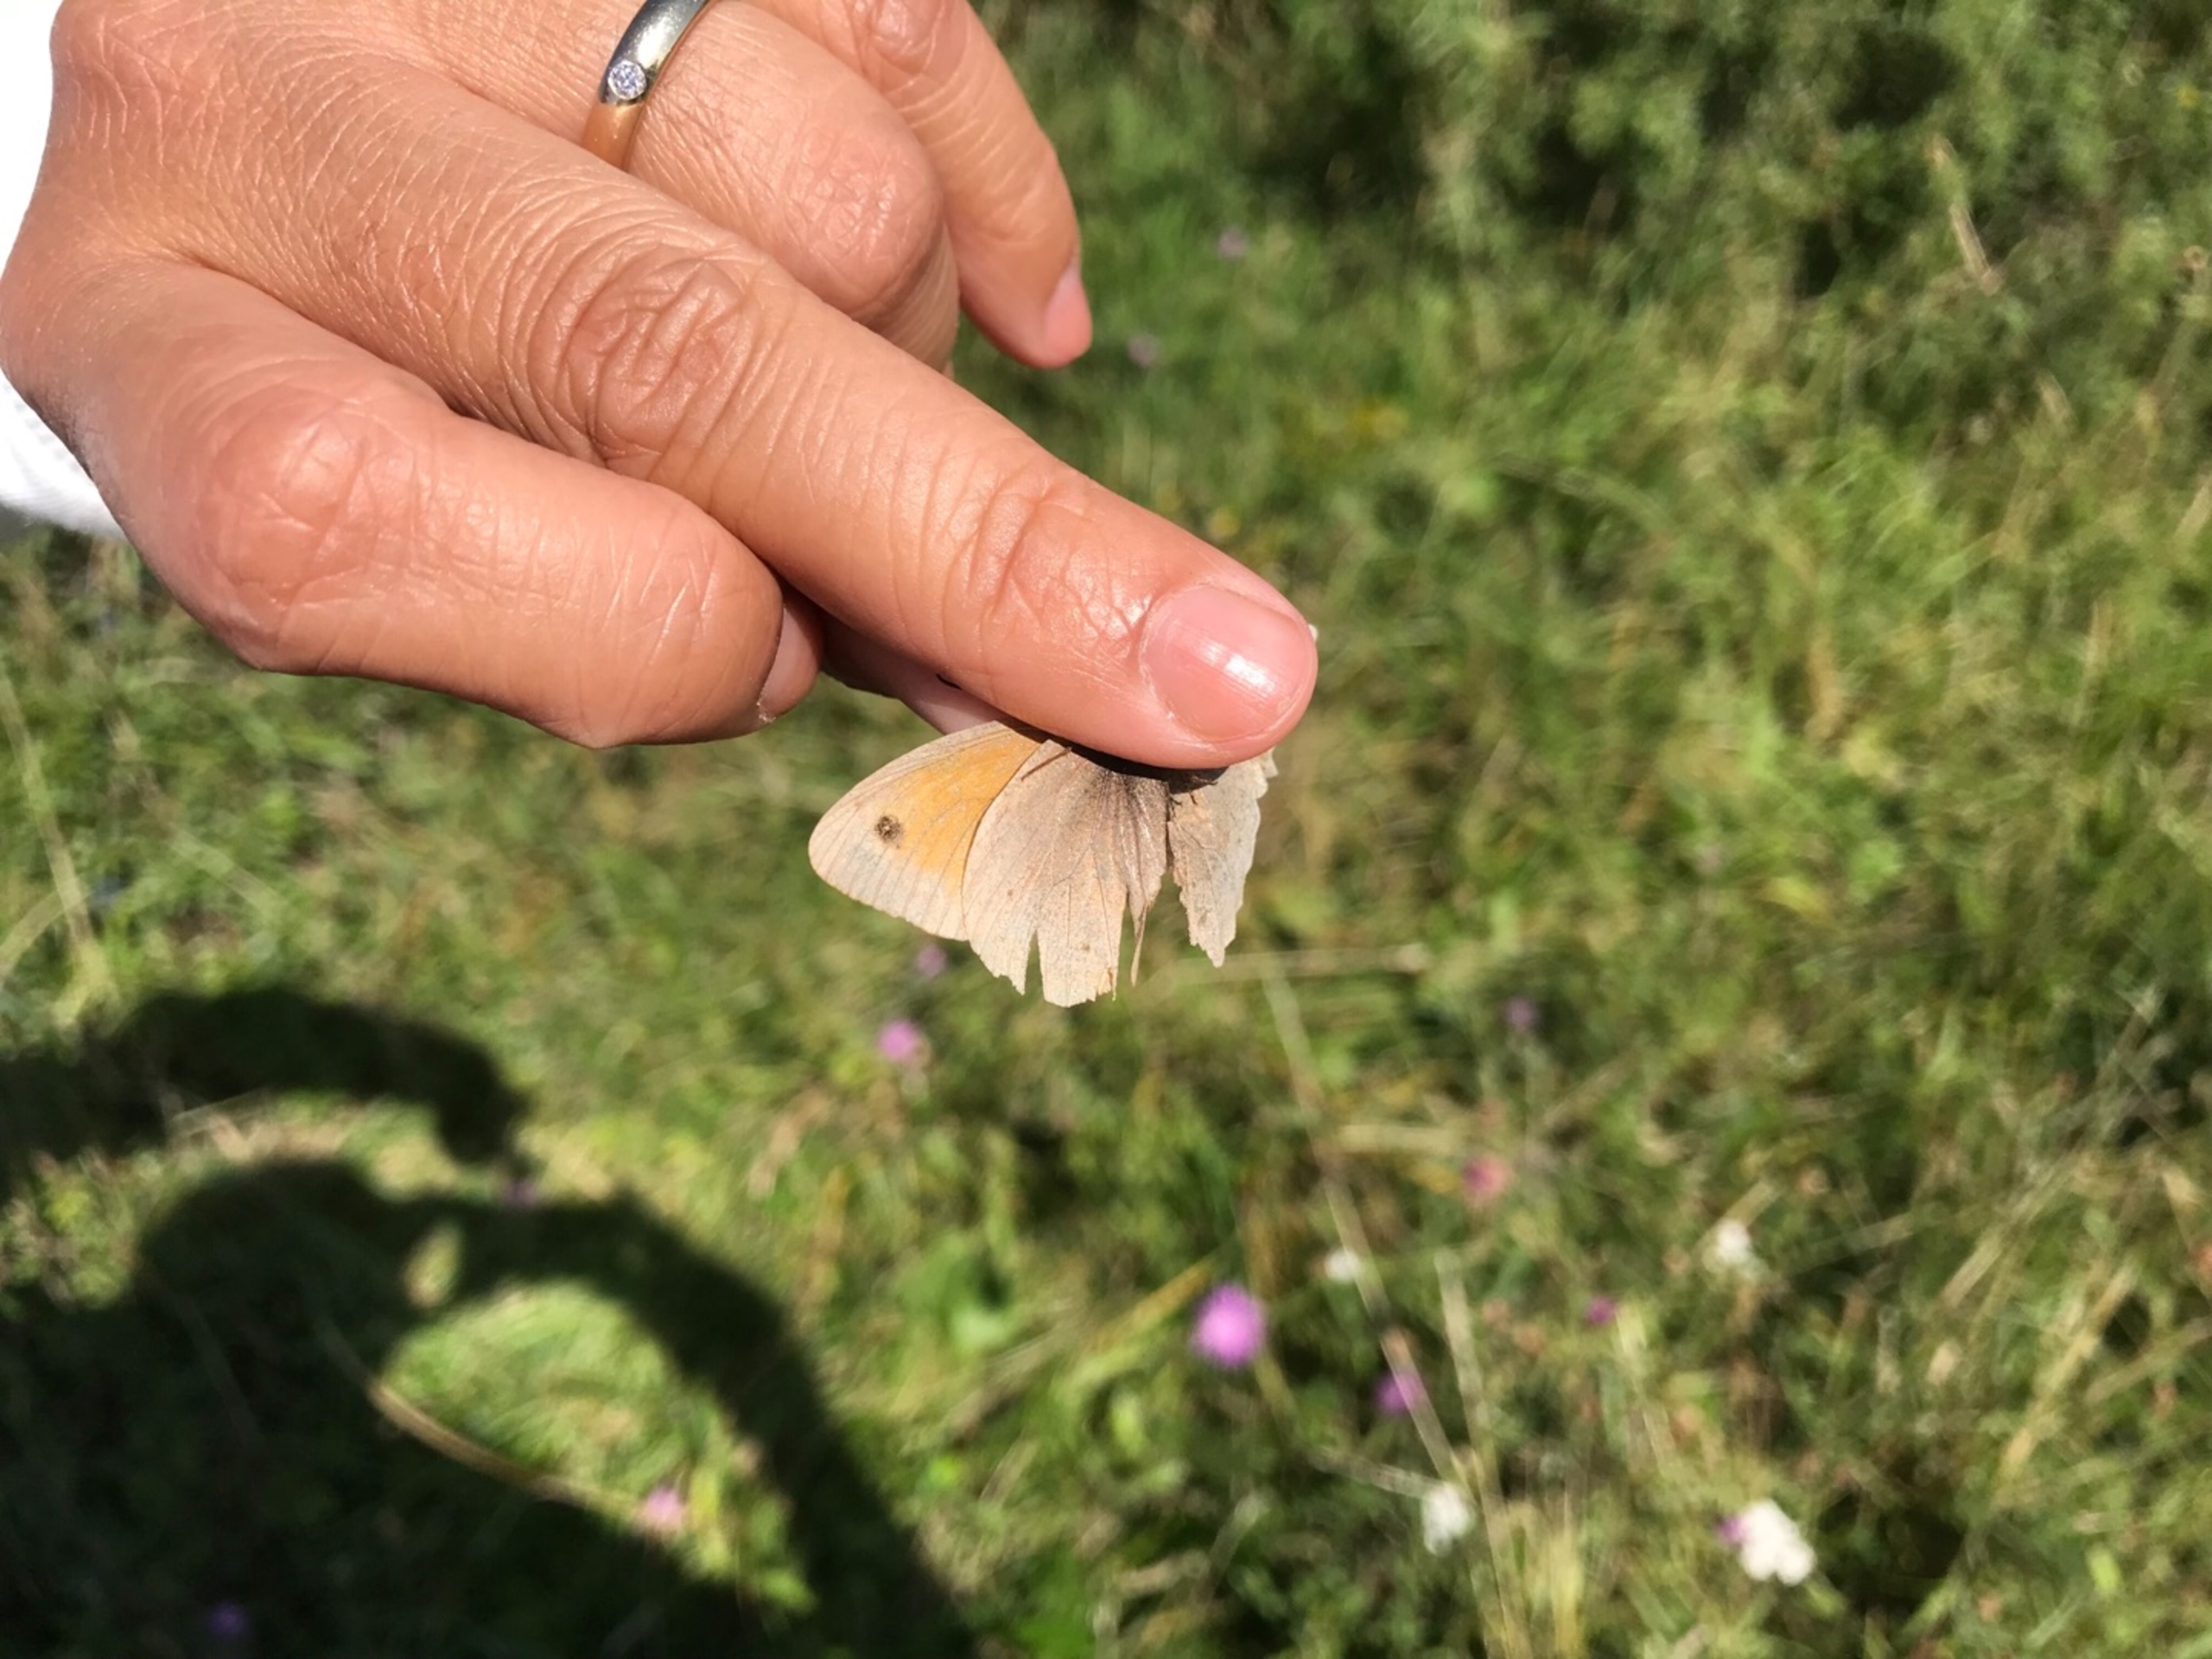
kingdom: Animalia
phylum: Arthropoda
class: Insecta
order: Lepidoptera
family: Nymphalidae
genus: Maniola
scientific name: Maniola jurtina
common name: Græsrandøje
